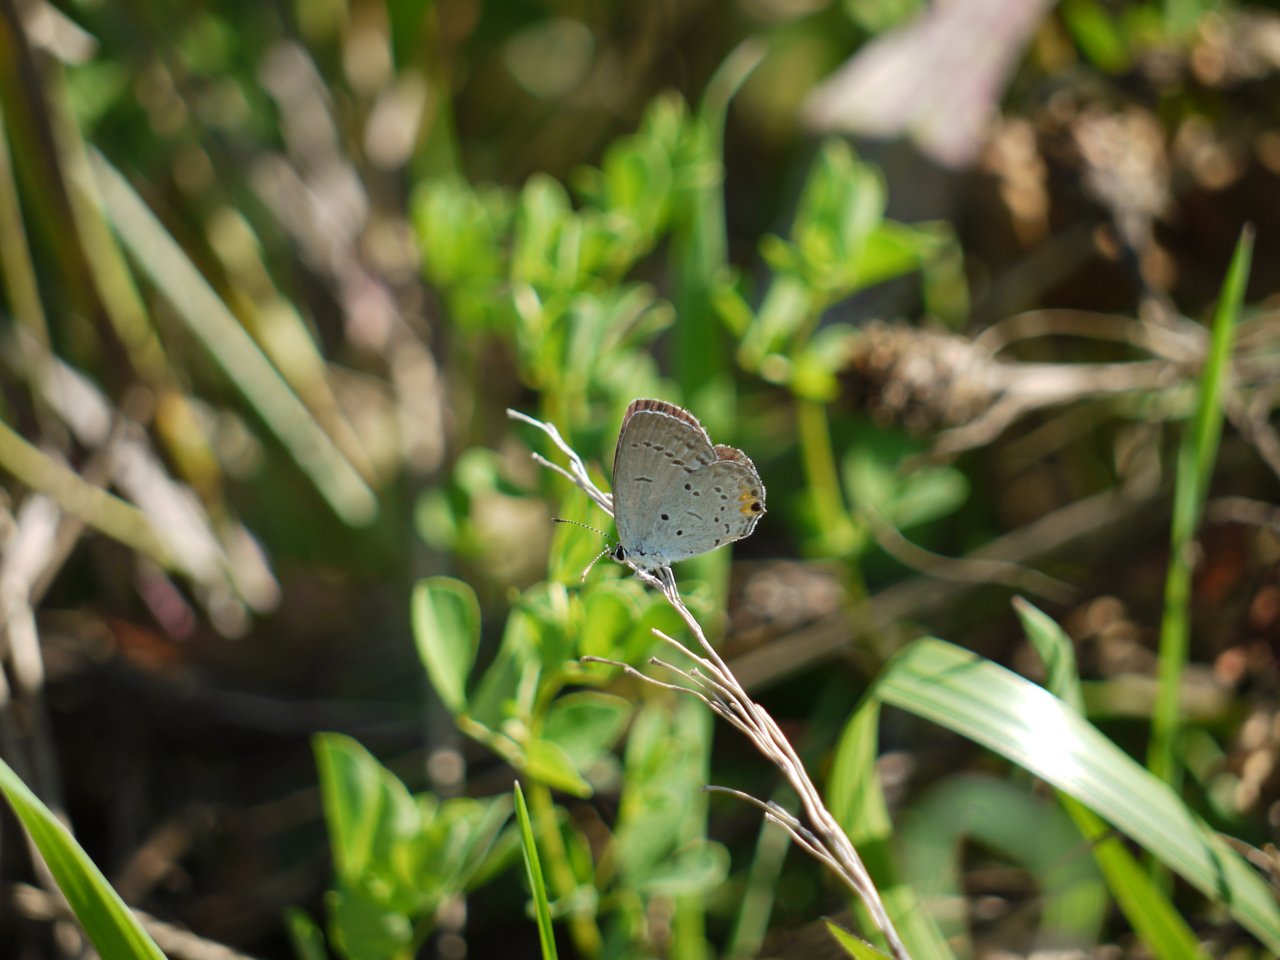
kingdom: Animalia
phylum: Arthropoda
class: Insecta
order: Lepidoptera
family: Lycaenidae
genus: Elkalyce
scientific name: Elkalyce comyntas
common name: Eastern Tailed-Blue
